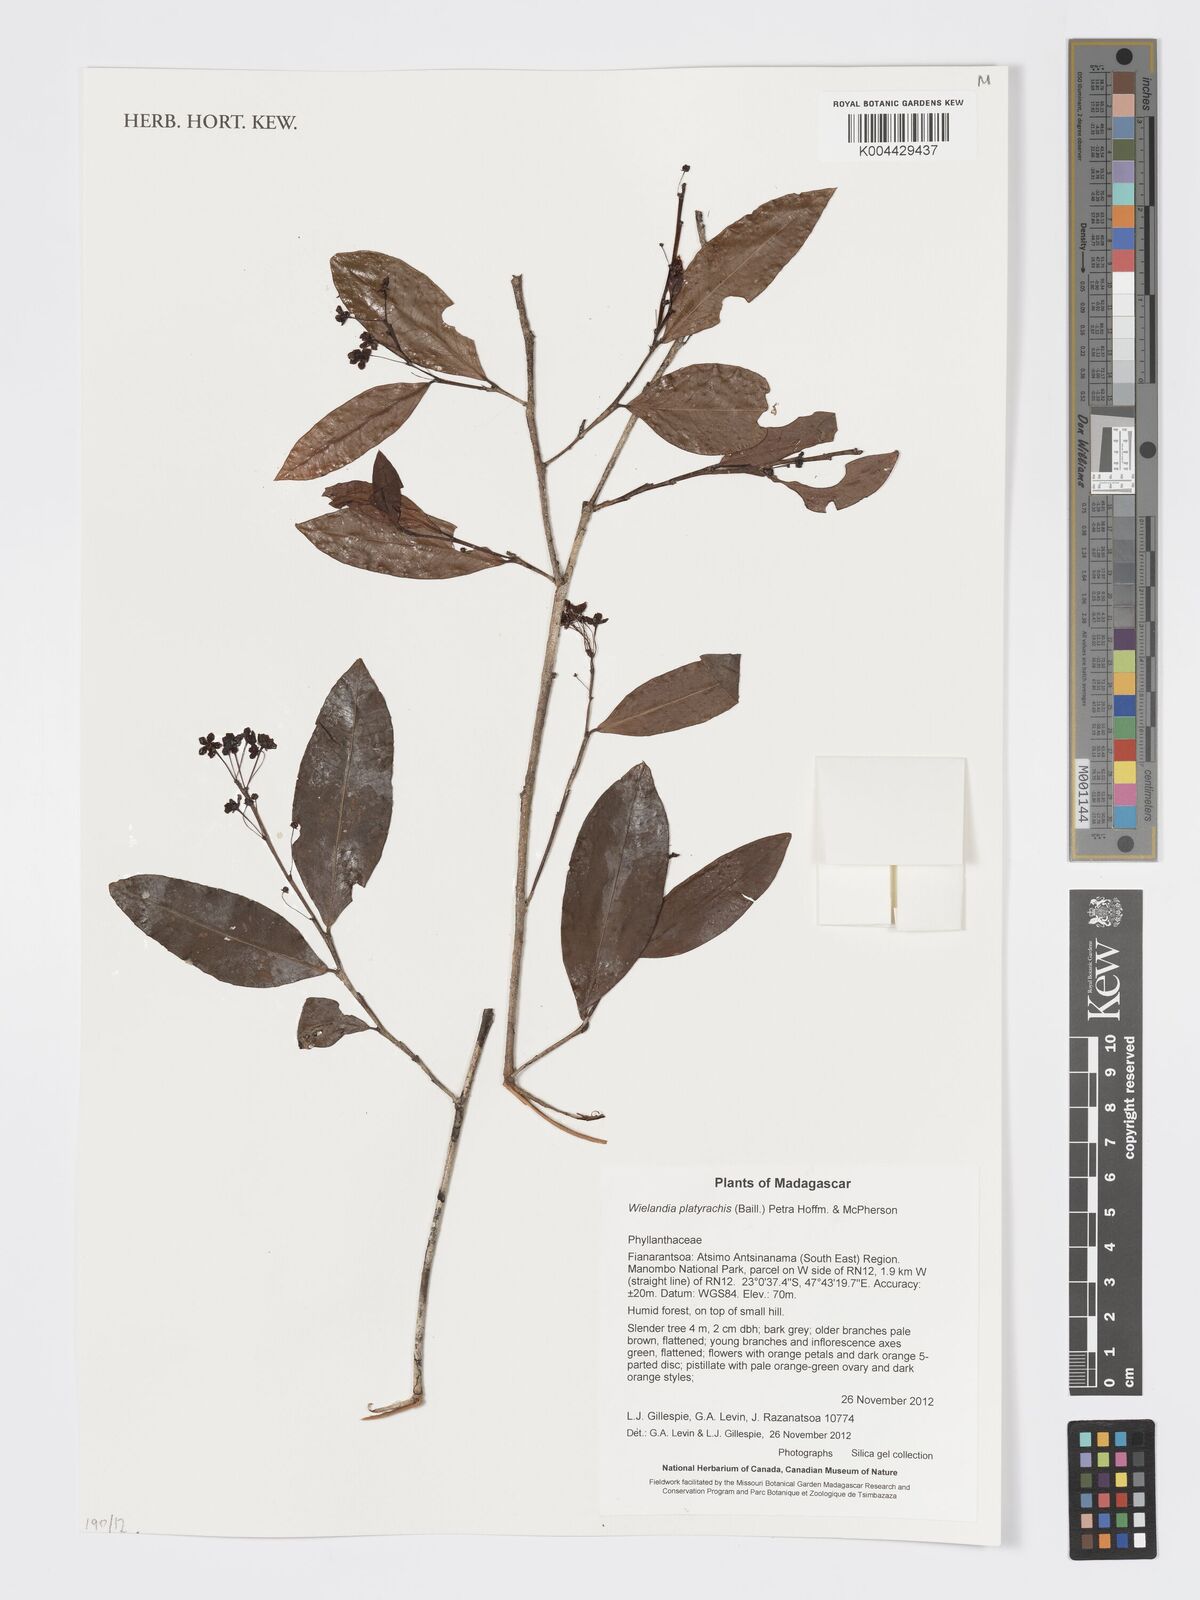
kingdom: Plantae
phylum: Tracheophyta
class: Magnoliopsida
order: Malpighiales
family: Phyllanthaceae
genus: Wielandia
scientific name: Wielandia platyrachis
